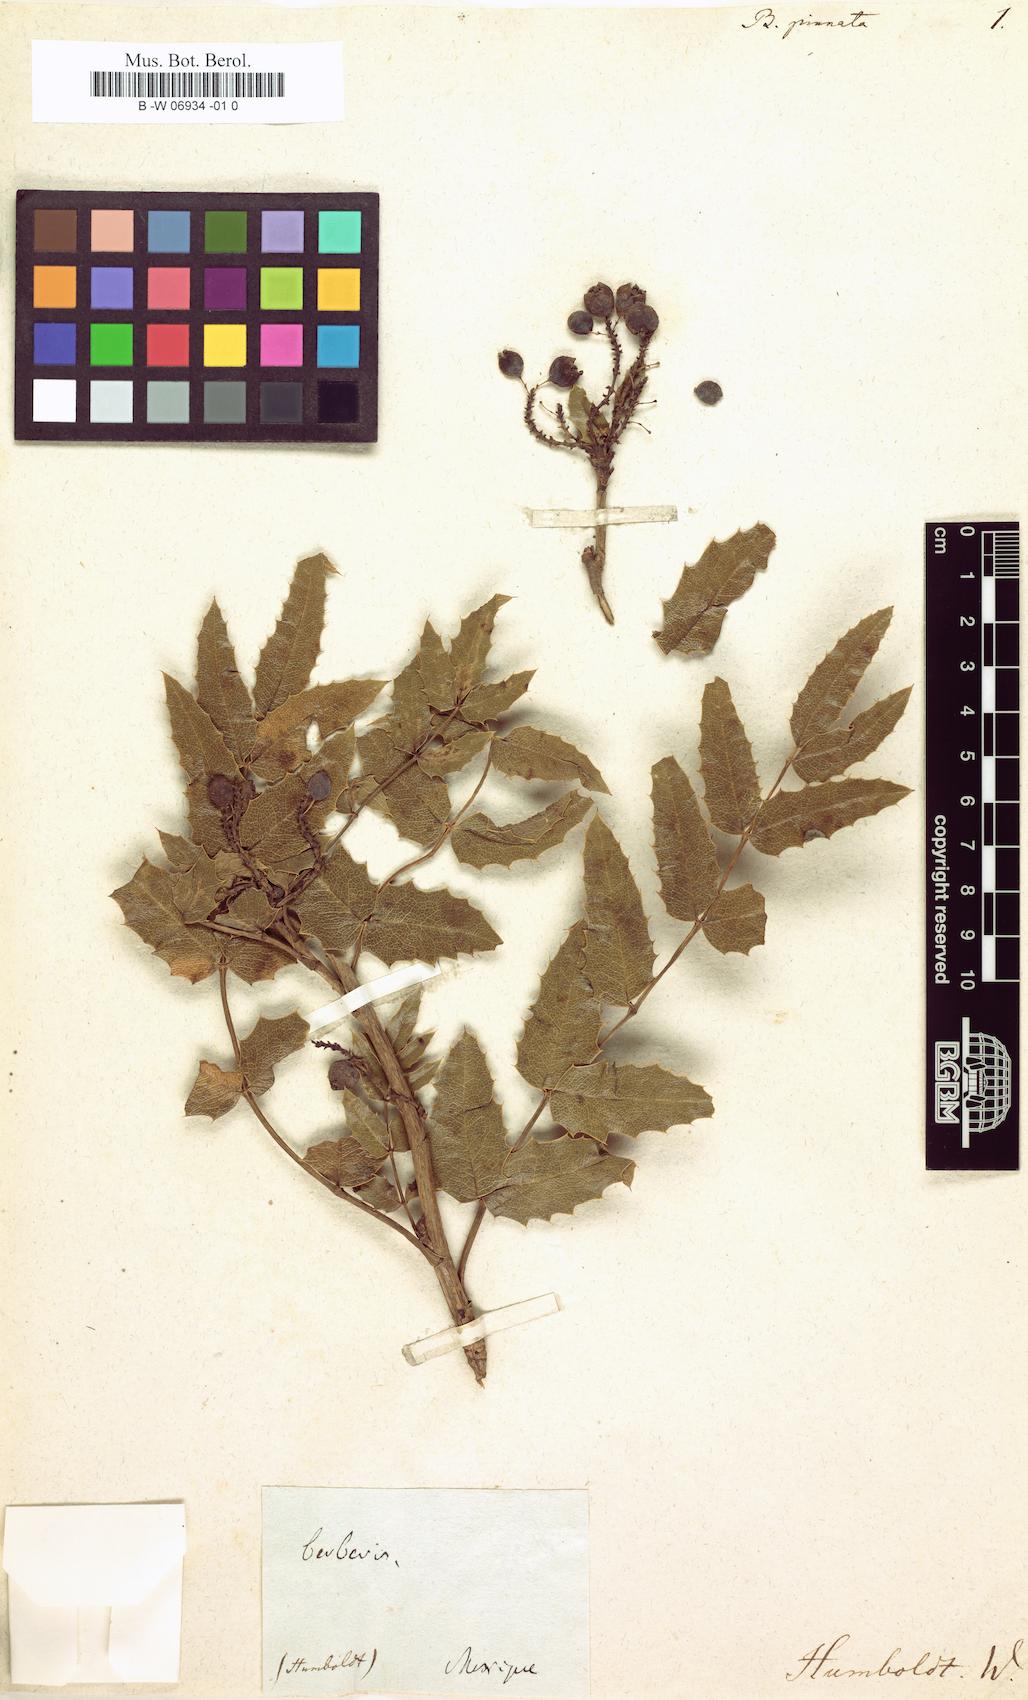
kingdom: Plantae
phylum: Tracheophyta
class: Magnoliopsida
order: Ranunculales
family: Berberidaceae
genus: Mahonia
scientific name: Mahonia moranensis
